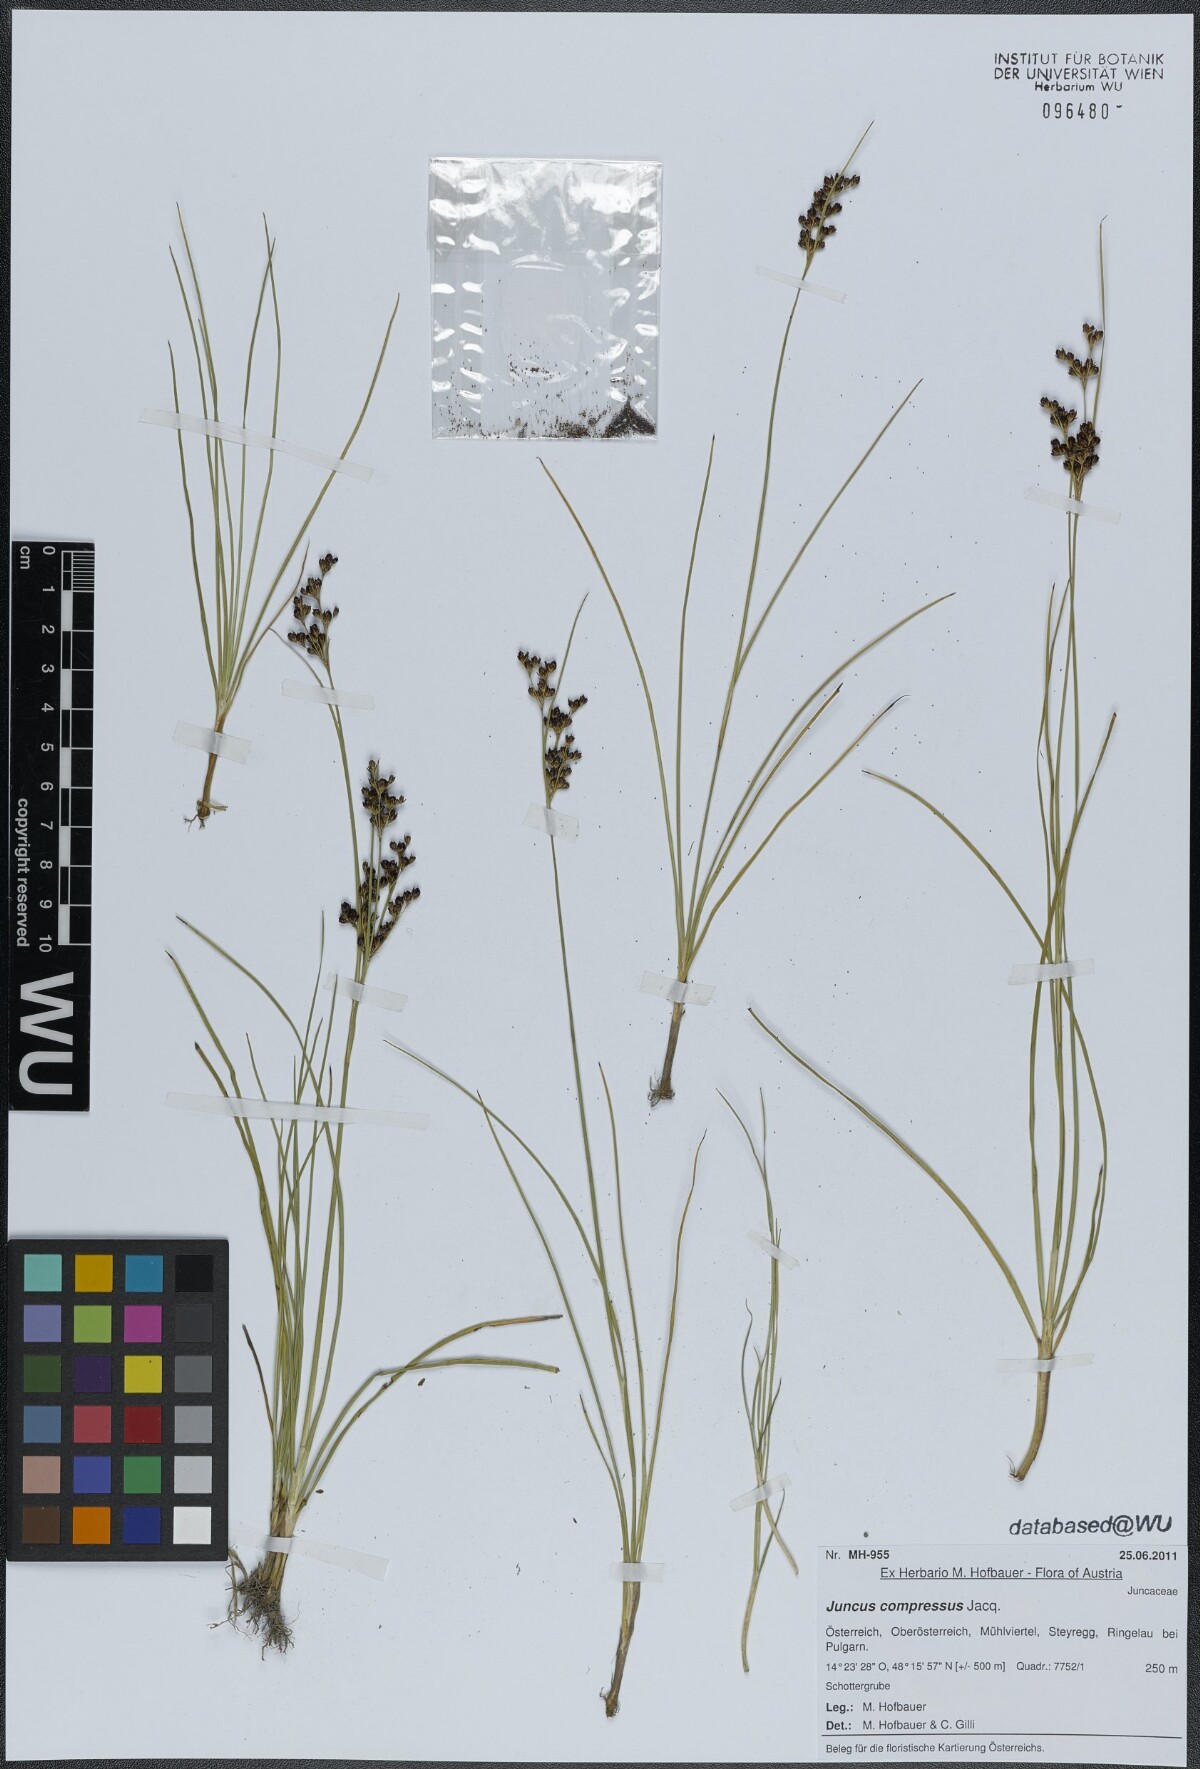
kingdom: Plantae
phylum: Tracheophyta
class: Liliopsida
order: Poales
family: Juncaceae
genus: Juncus
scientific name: Juncus compressus
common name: Round-fruited rush
